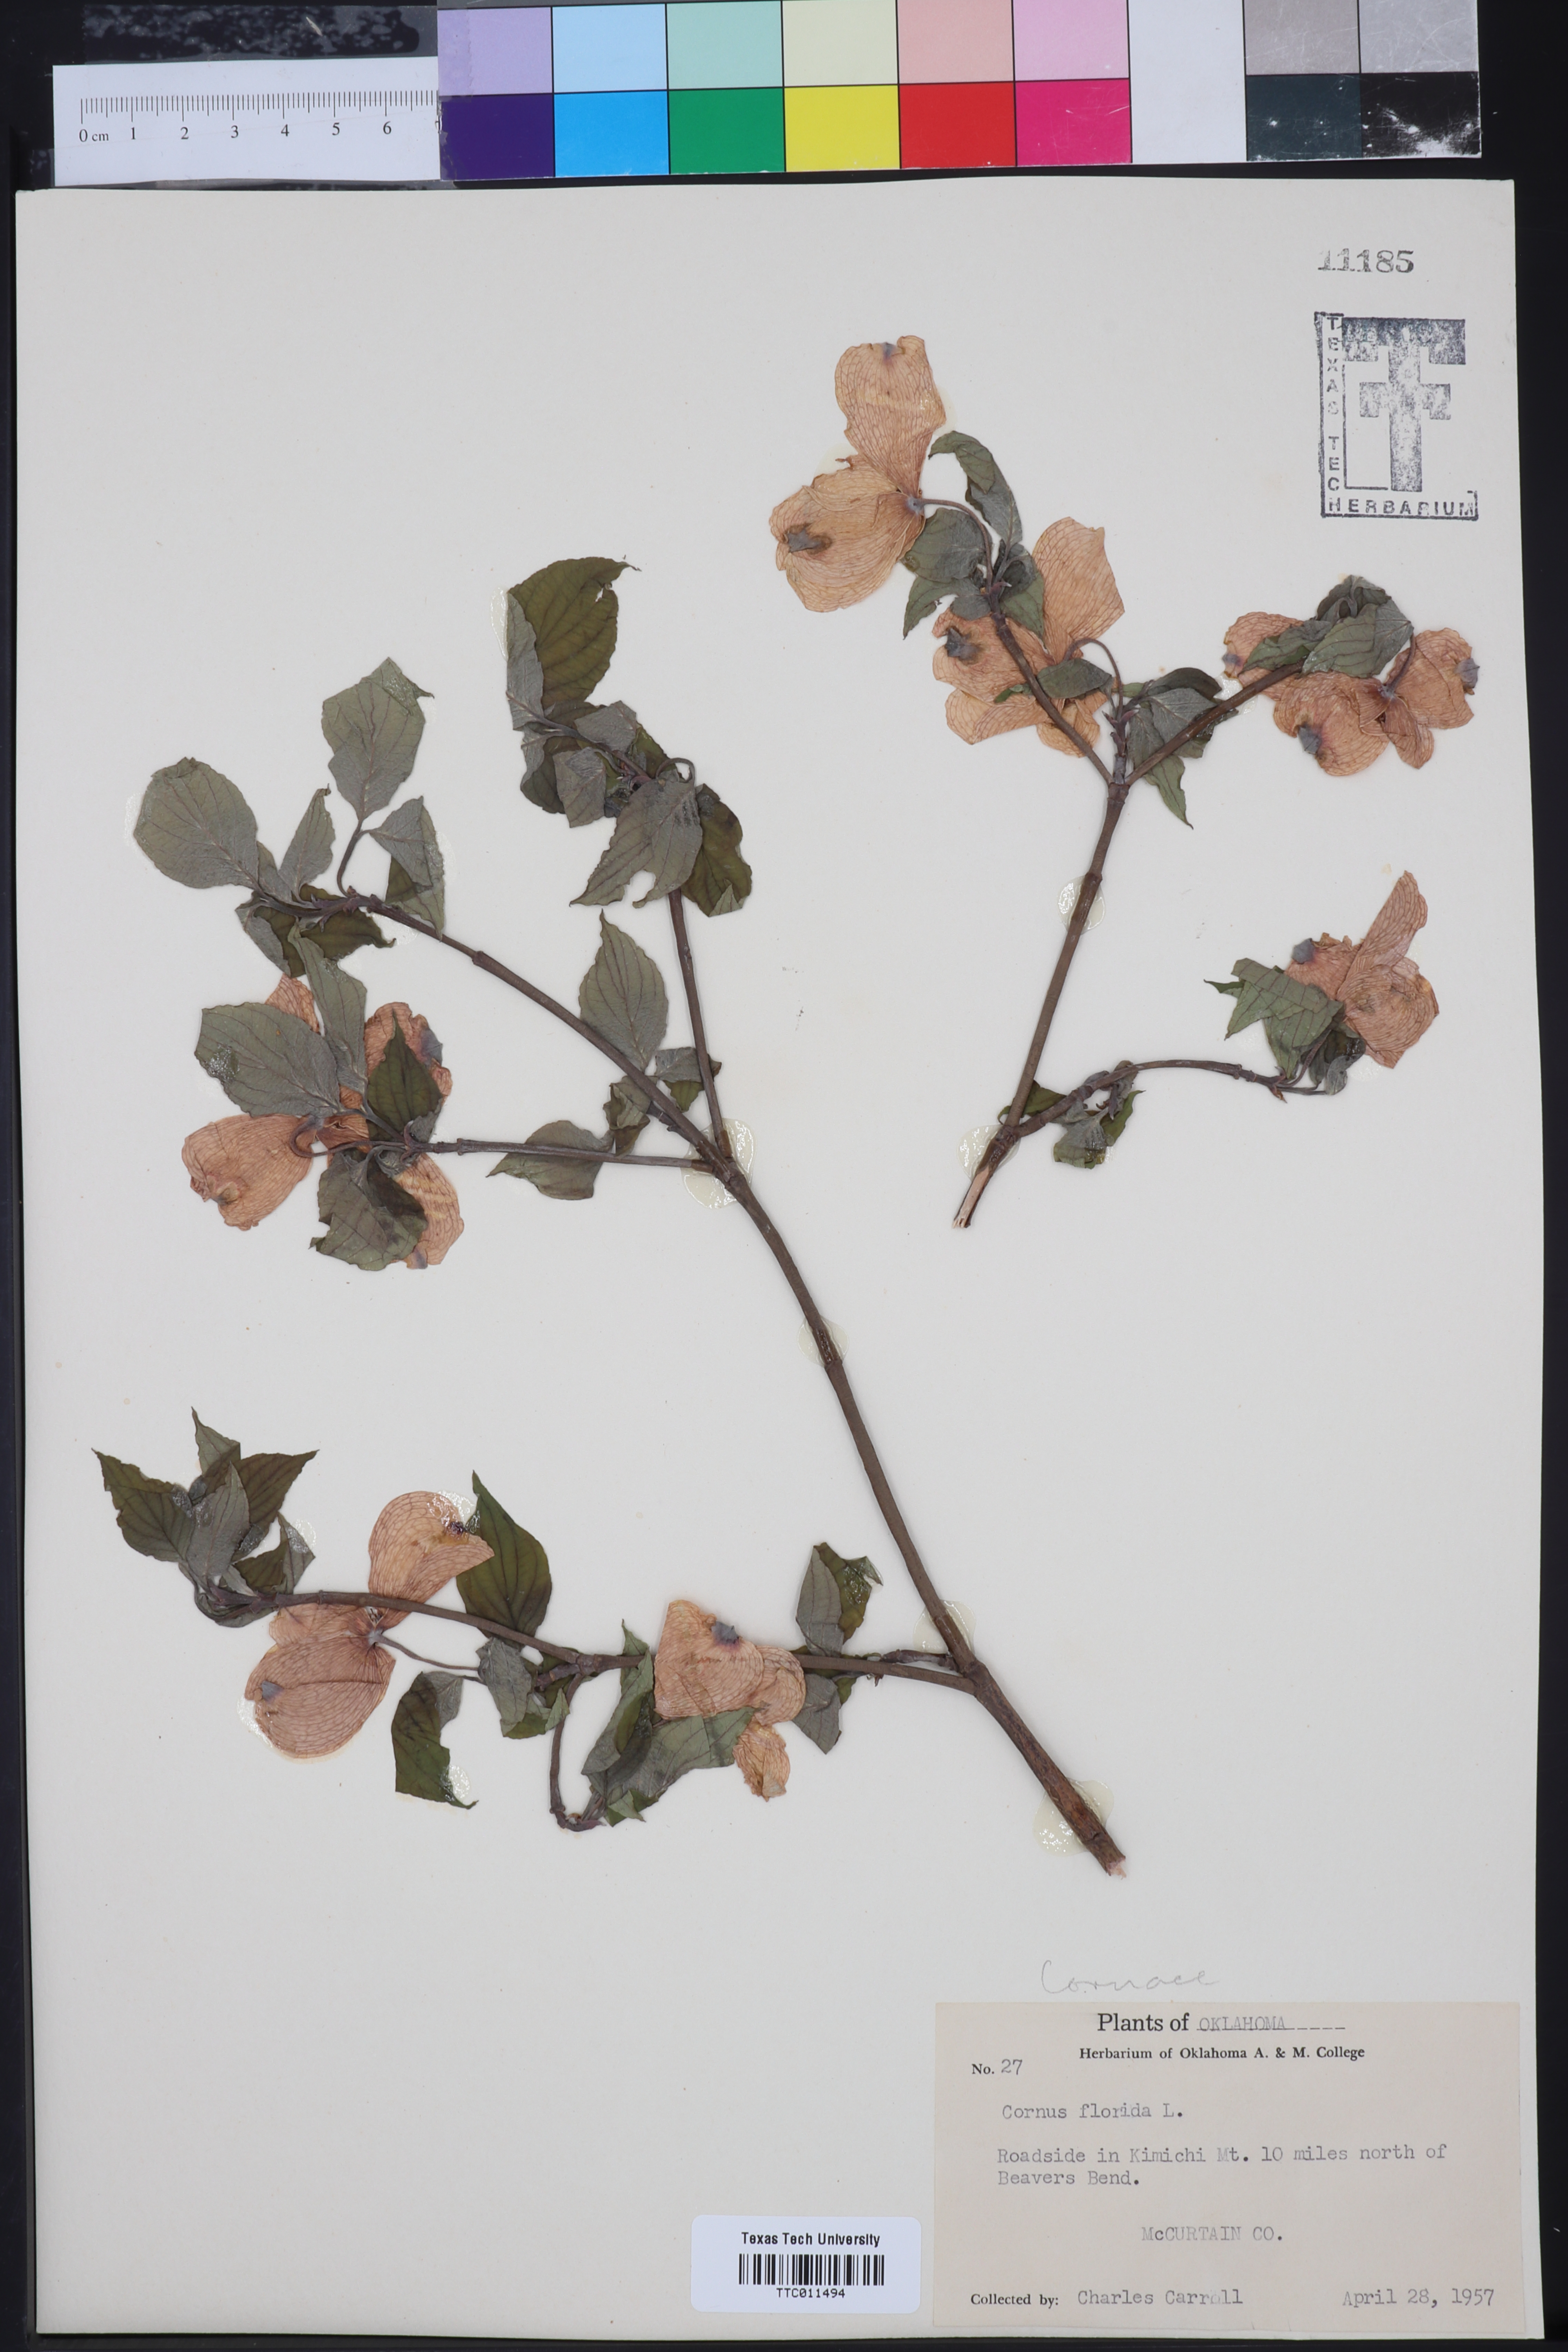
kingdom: Plantae
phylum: Tracheophyta
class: Magnoliopsida
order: Cornales
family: Cornaceae
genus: Cornus
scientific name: Cornus florida
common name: Flowering dogwood
